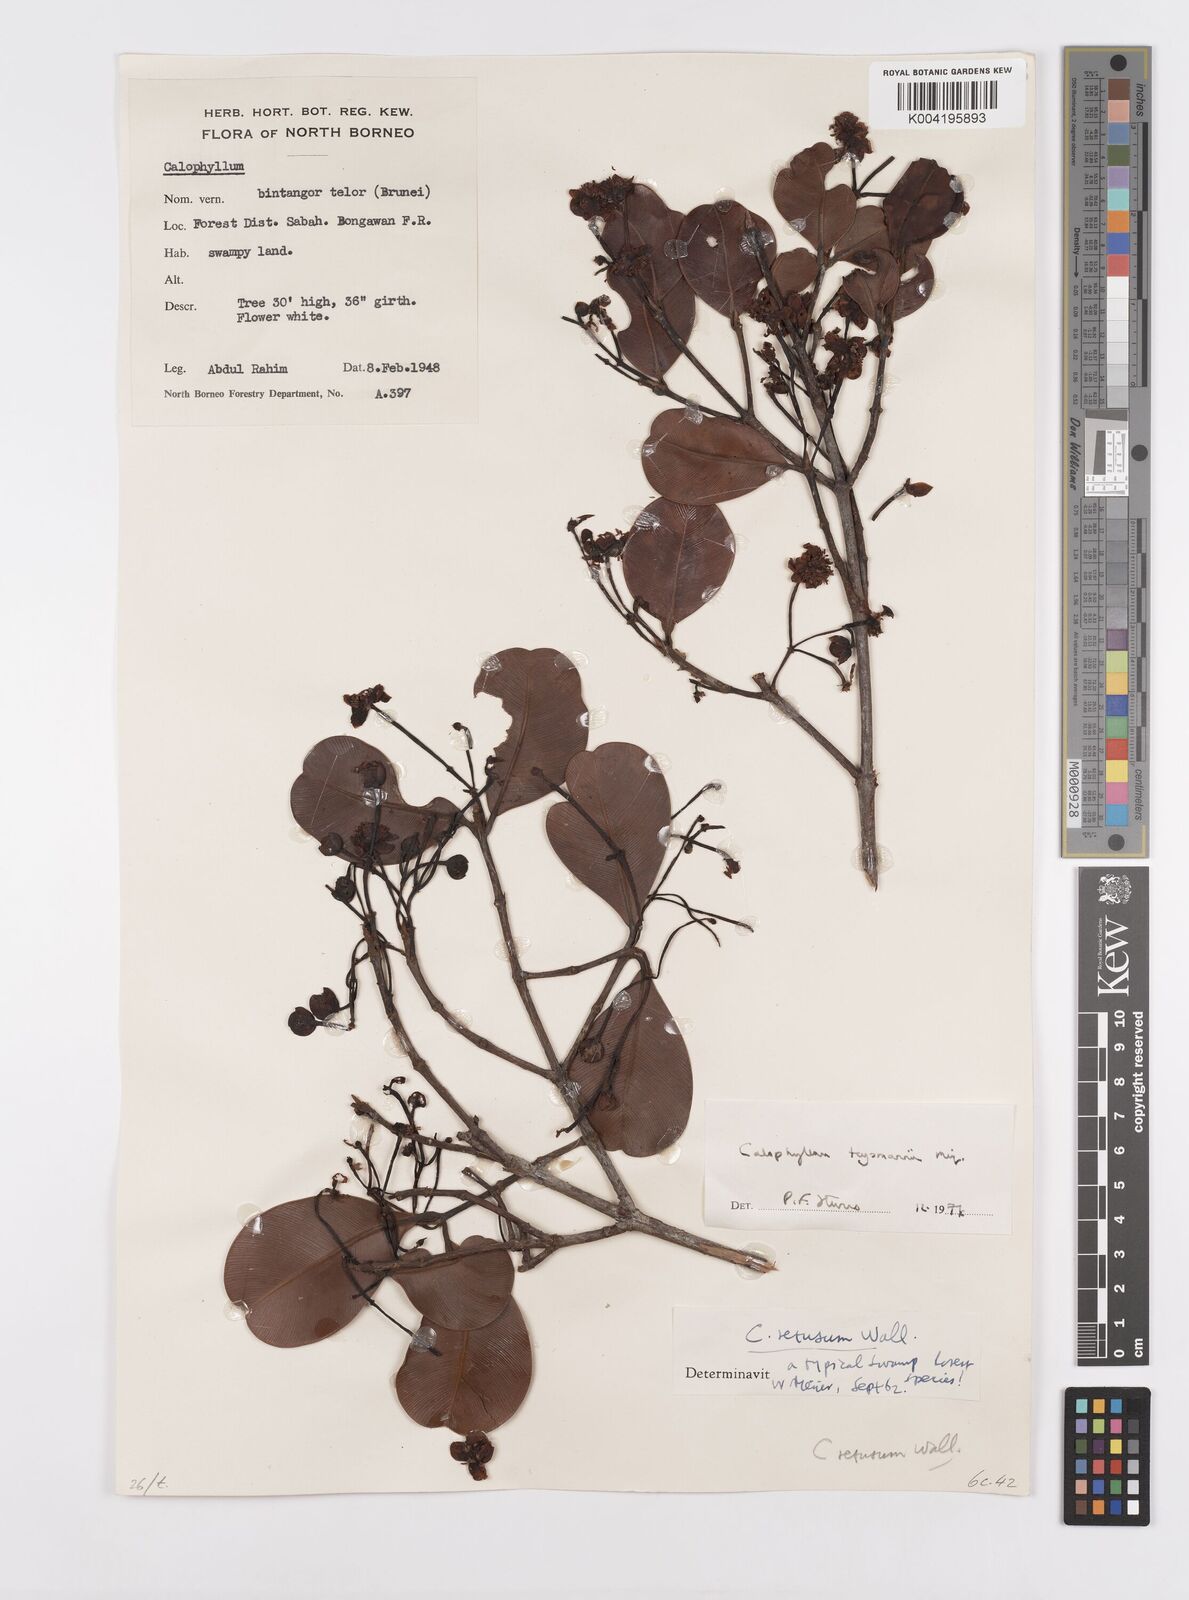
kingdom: Plantae
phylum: Tracheophyta
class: Magnoliopsida
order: Malpighiales
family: Calophyllaceae
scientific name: Calophyllaceae
